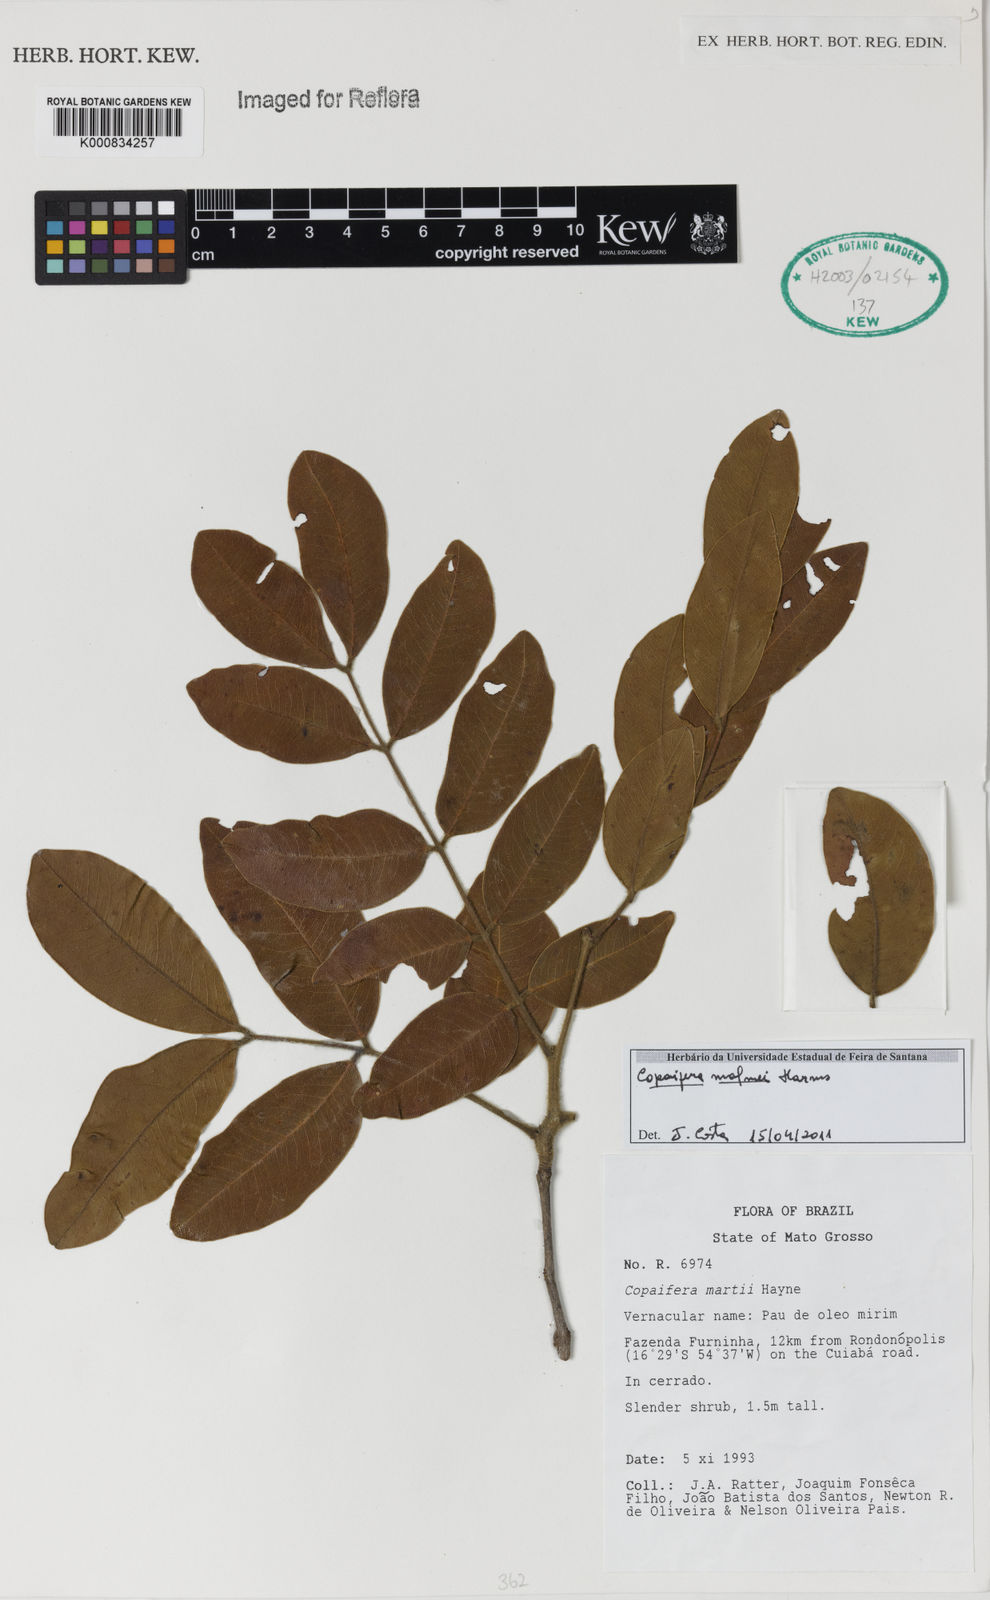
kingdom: Plantae
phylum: Tracheophyta
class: Magnoliopsida
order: Fabales
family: Fabaceae
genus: Copaifera
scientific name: Copaifera malmei
